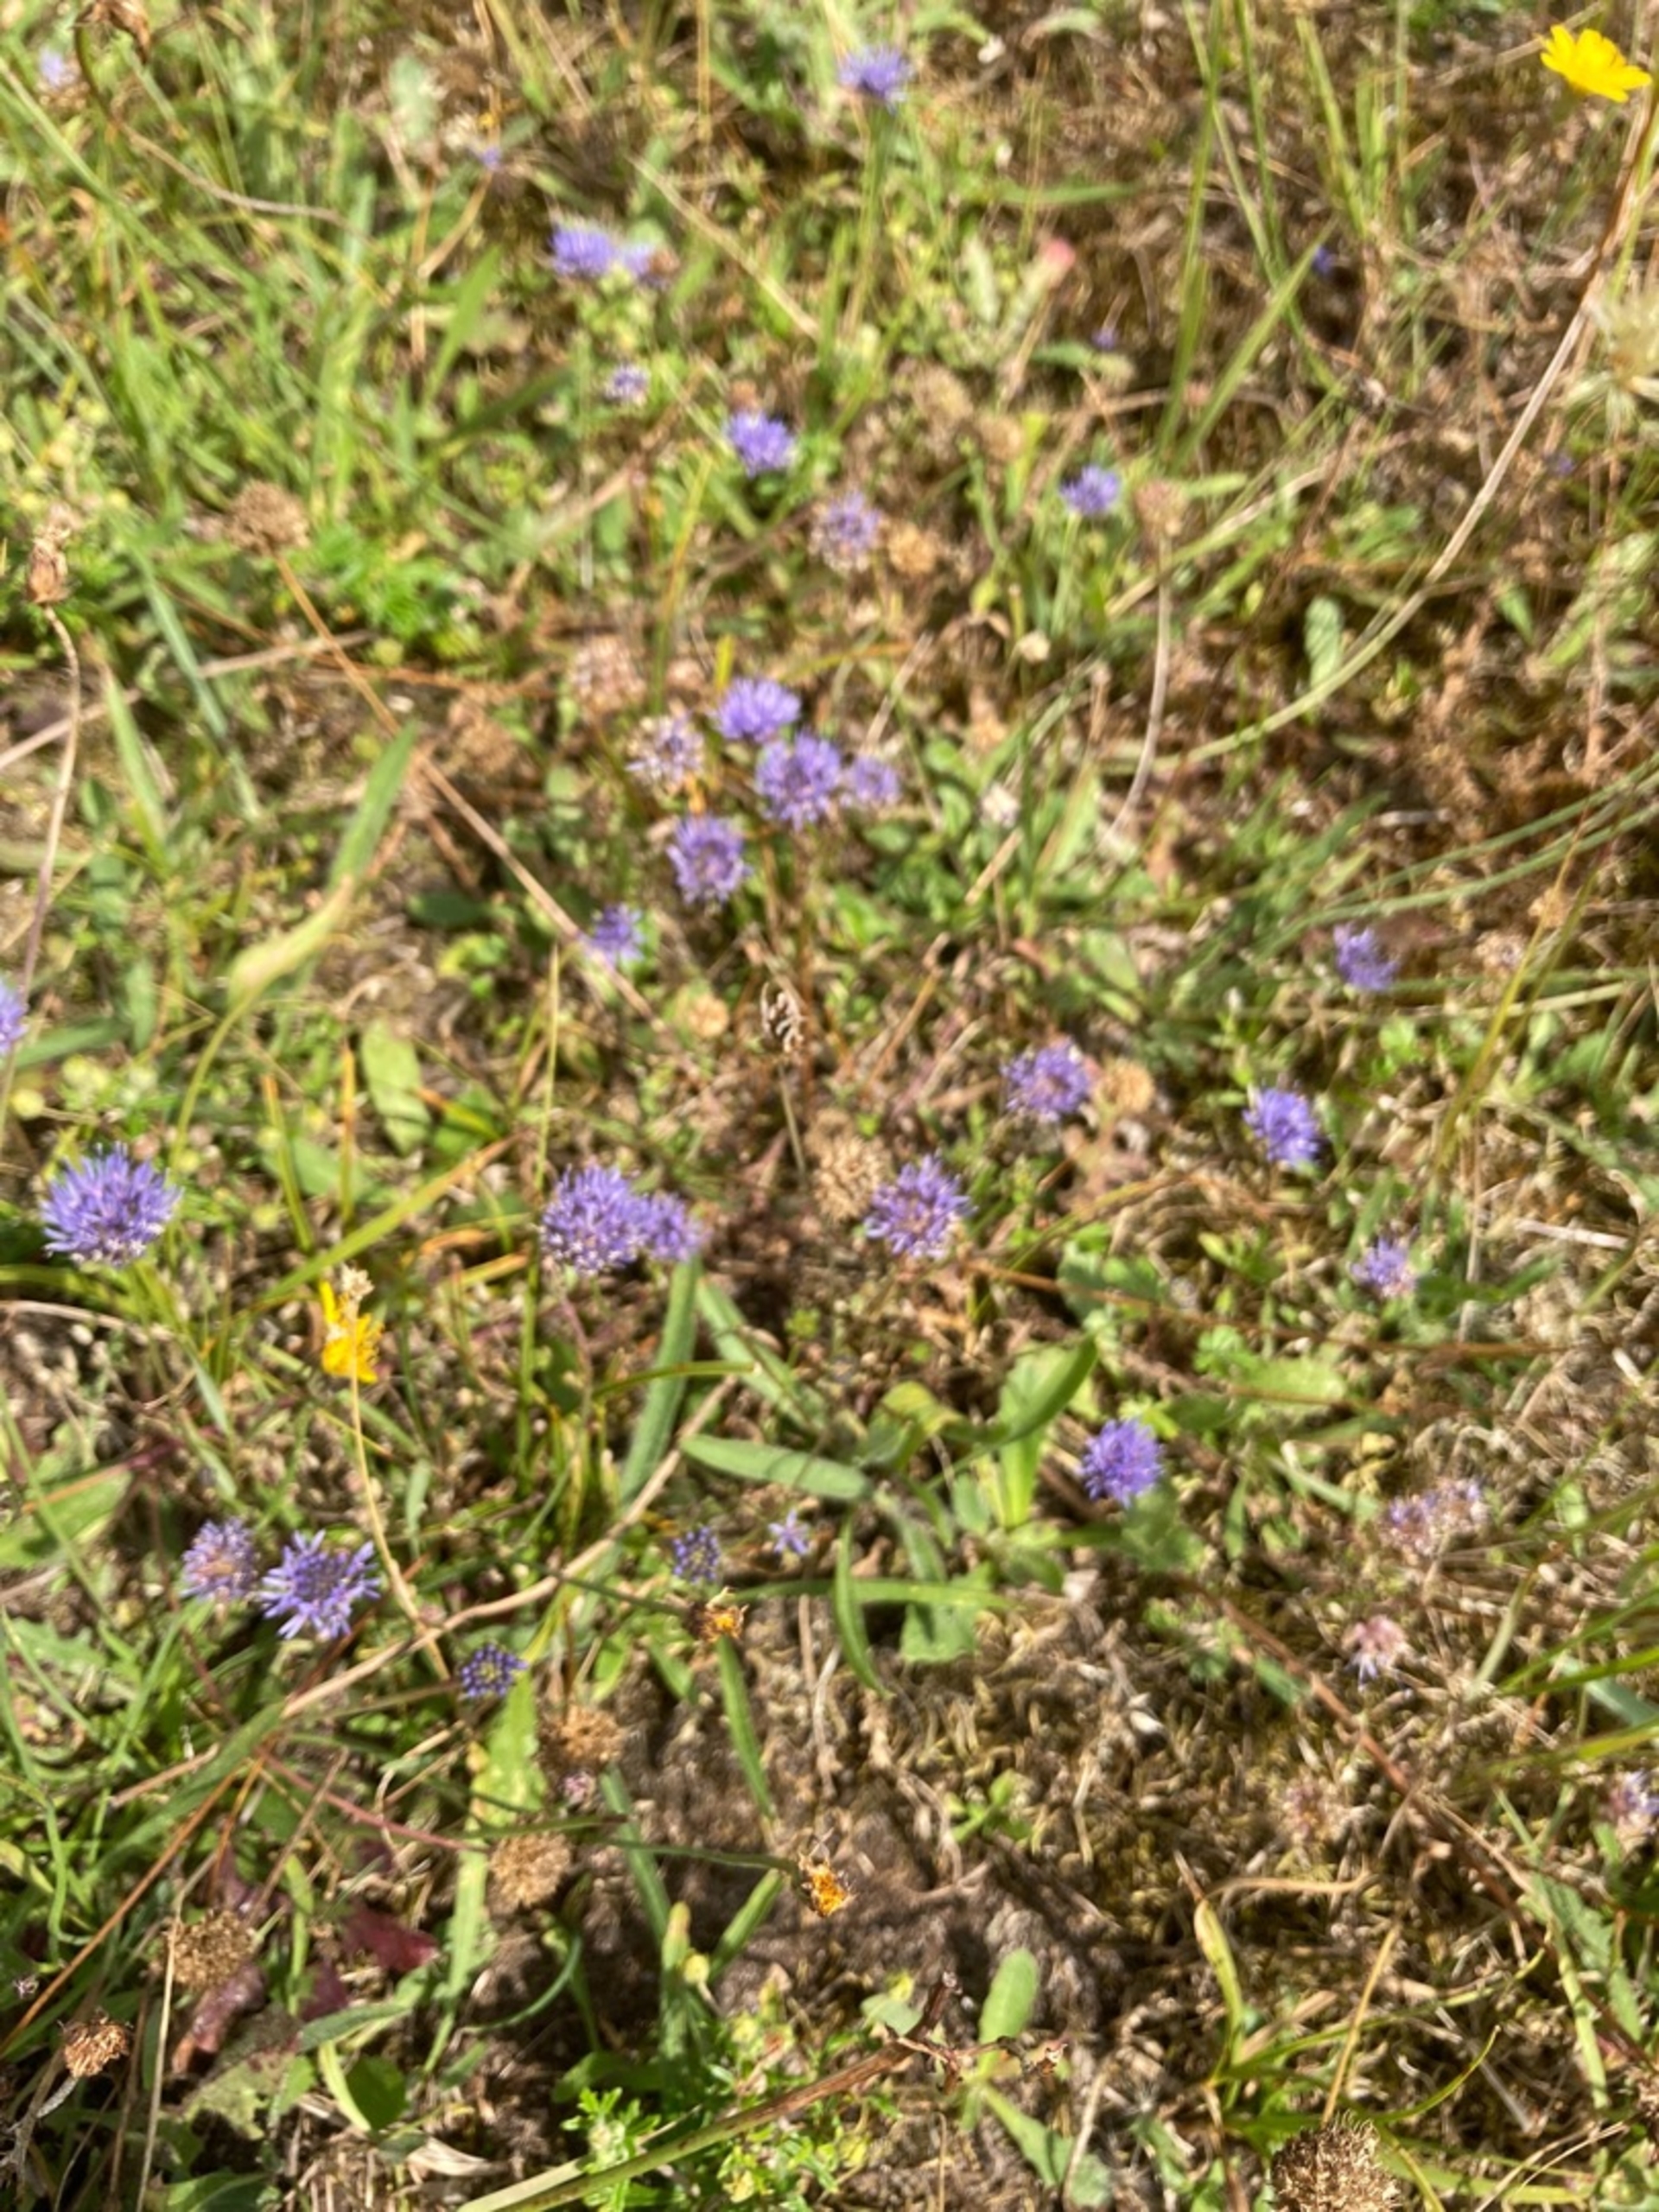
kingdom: Plantae
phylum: Tracheophyta
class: Magnoliopsida
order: Asterales
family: Campanulaceae
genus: Jasione
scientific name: Jasione montana
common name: Blåmunke
